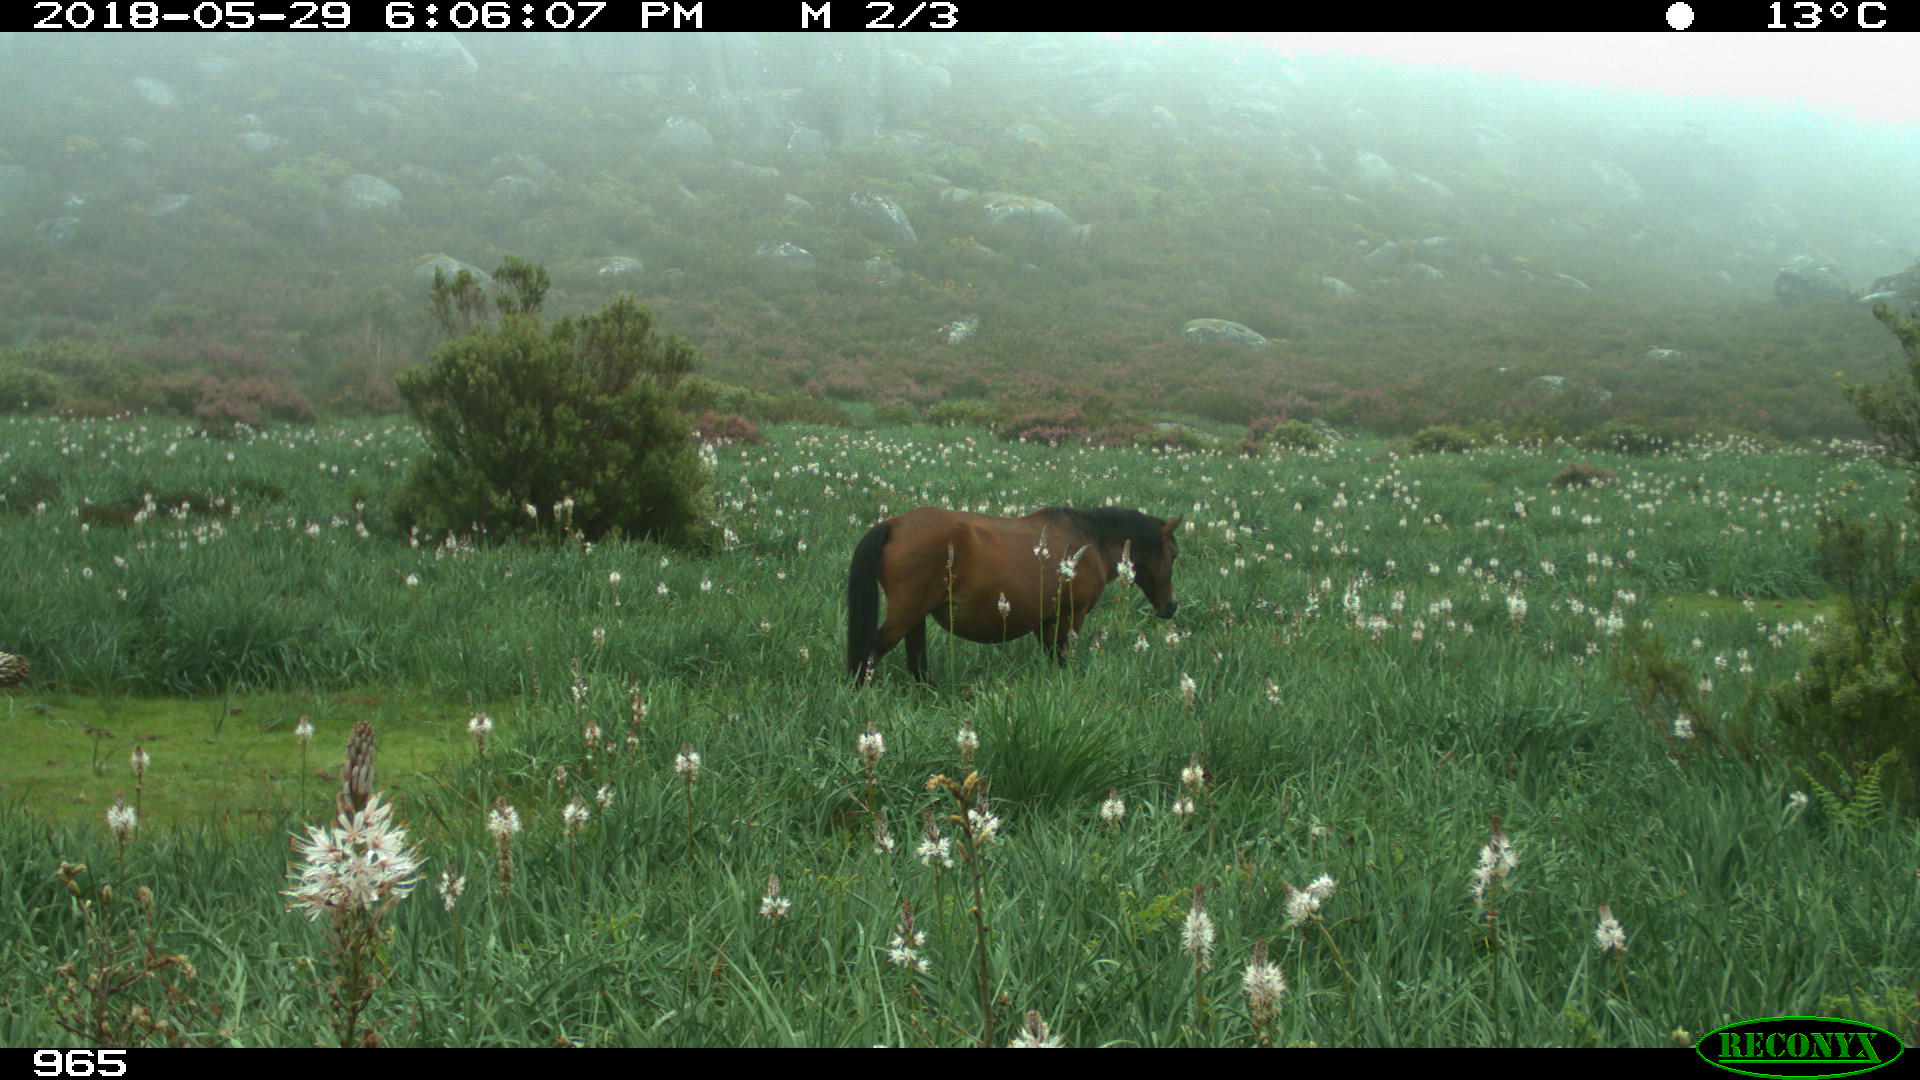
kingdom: Animalia
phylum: Chordata
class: Mammalia
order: Perissodactyla
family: Equidae
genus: Equus
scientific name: Equus caballus
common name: Horse
